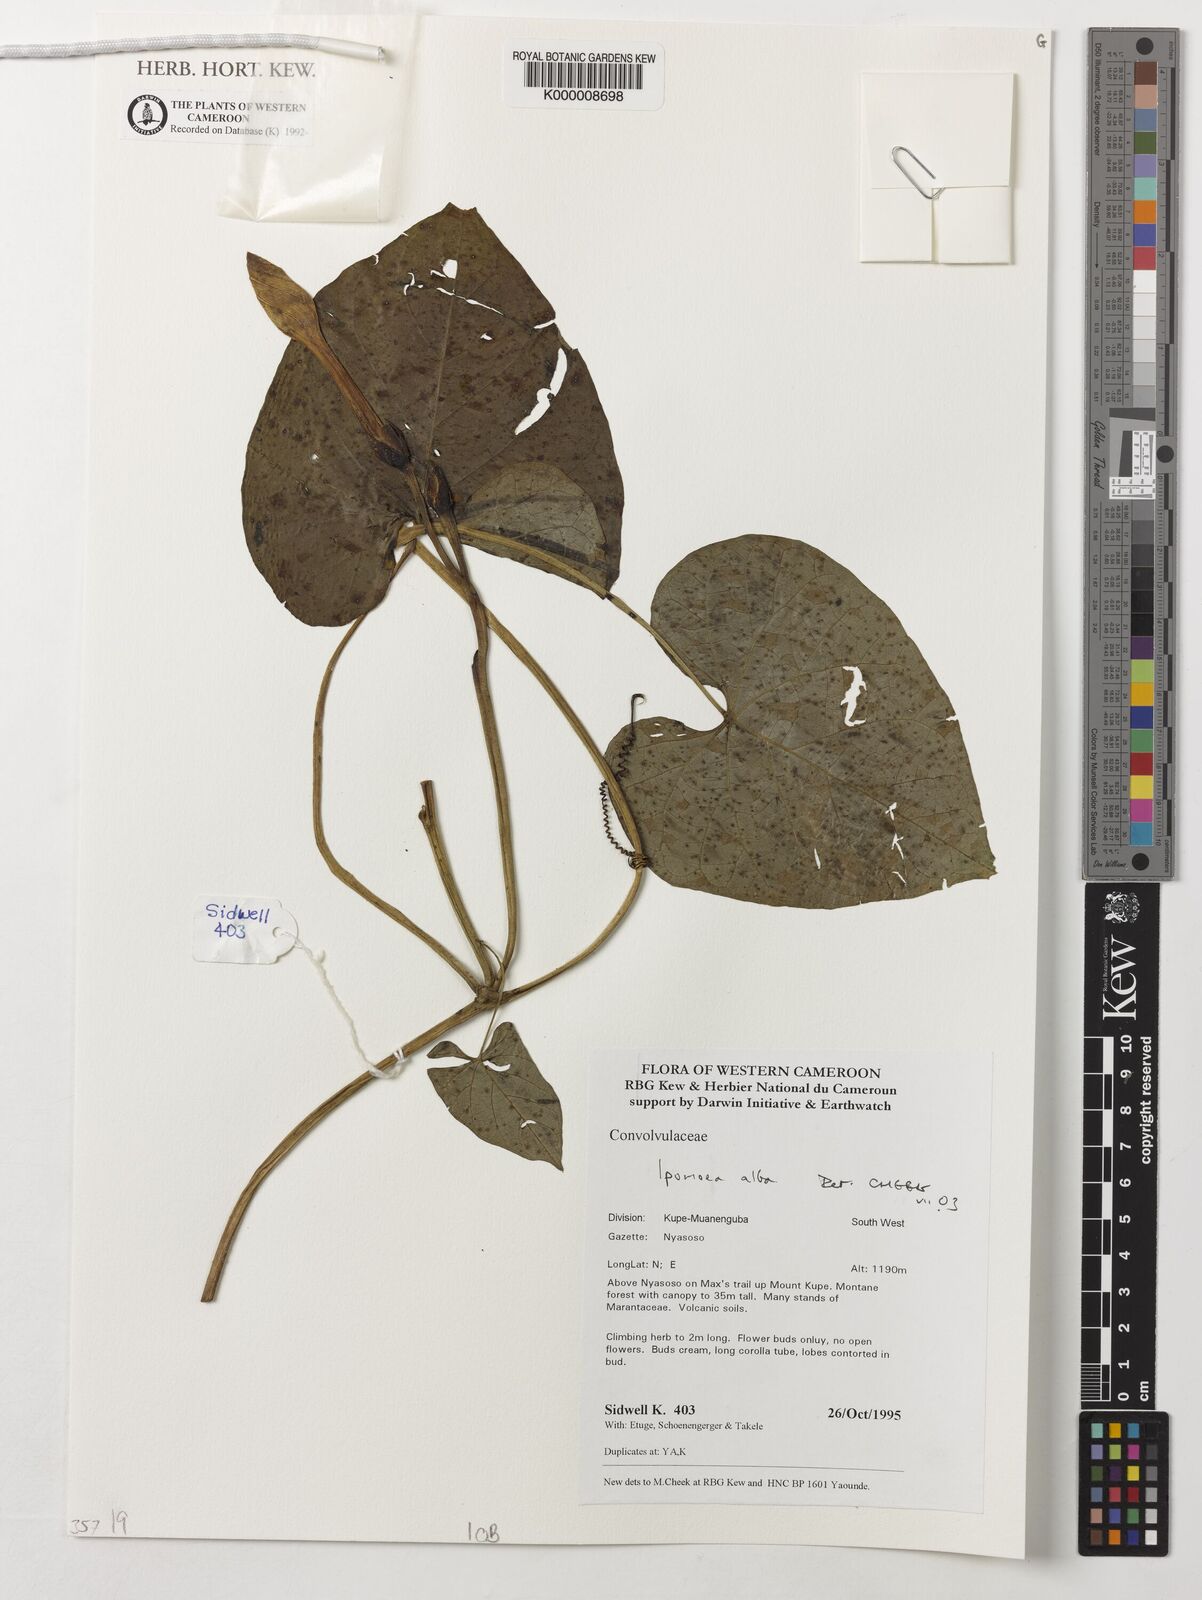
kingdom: Plantae
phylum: Tracheophyta
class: Magnoliopsida
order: Solanales
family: Convolvulaceae
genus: Ipomoea
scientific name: Ipomoea alba
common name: Moonflower
